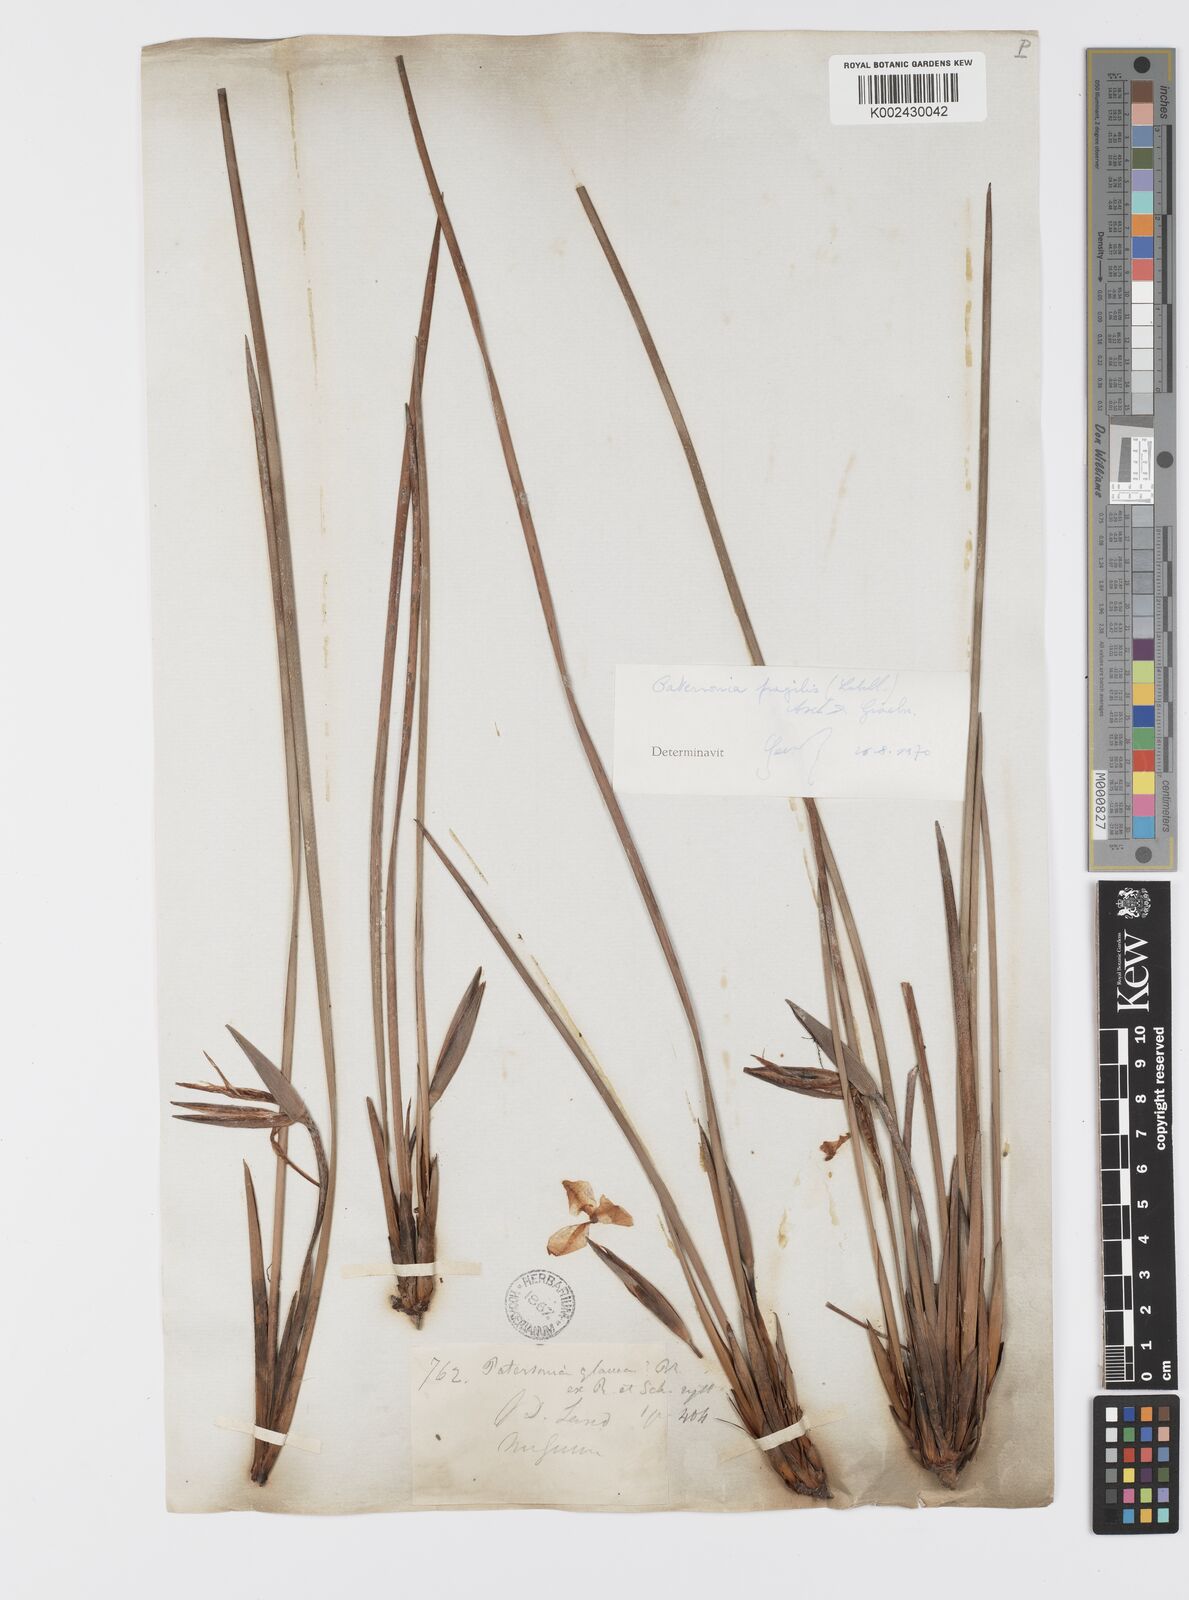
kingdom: Plantae
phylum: Tracheophyta
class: Liliopsida
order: Asparagales
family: Iridaceae
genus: Patersonia
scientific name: Patersonia fragilis
